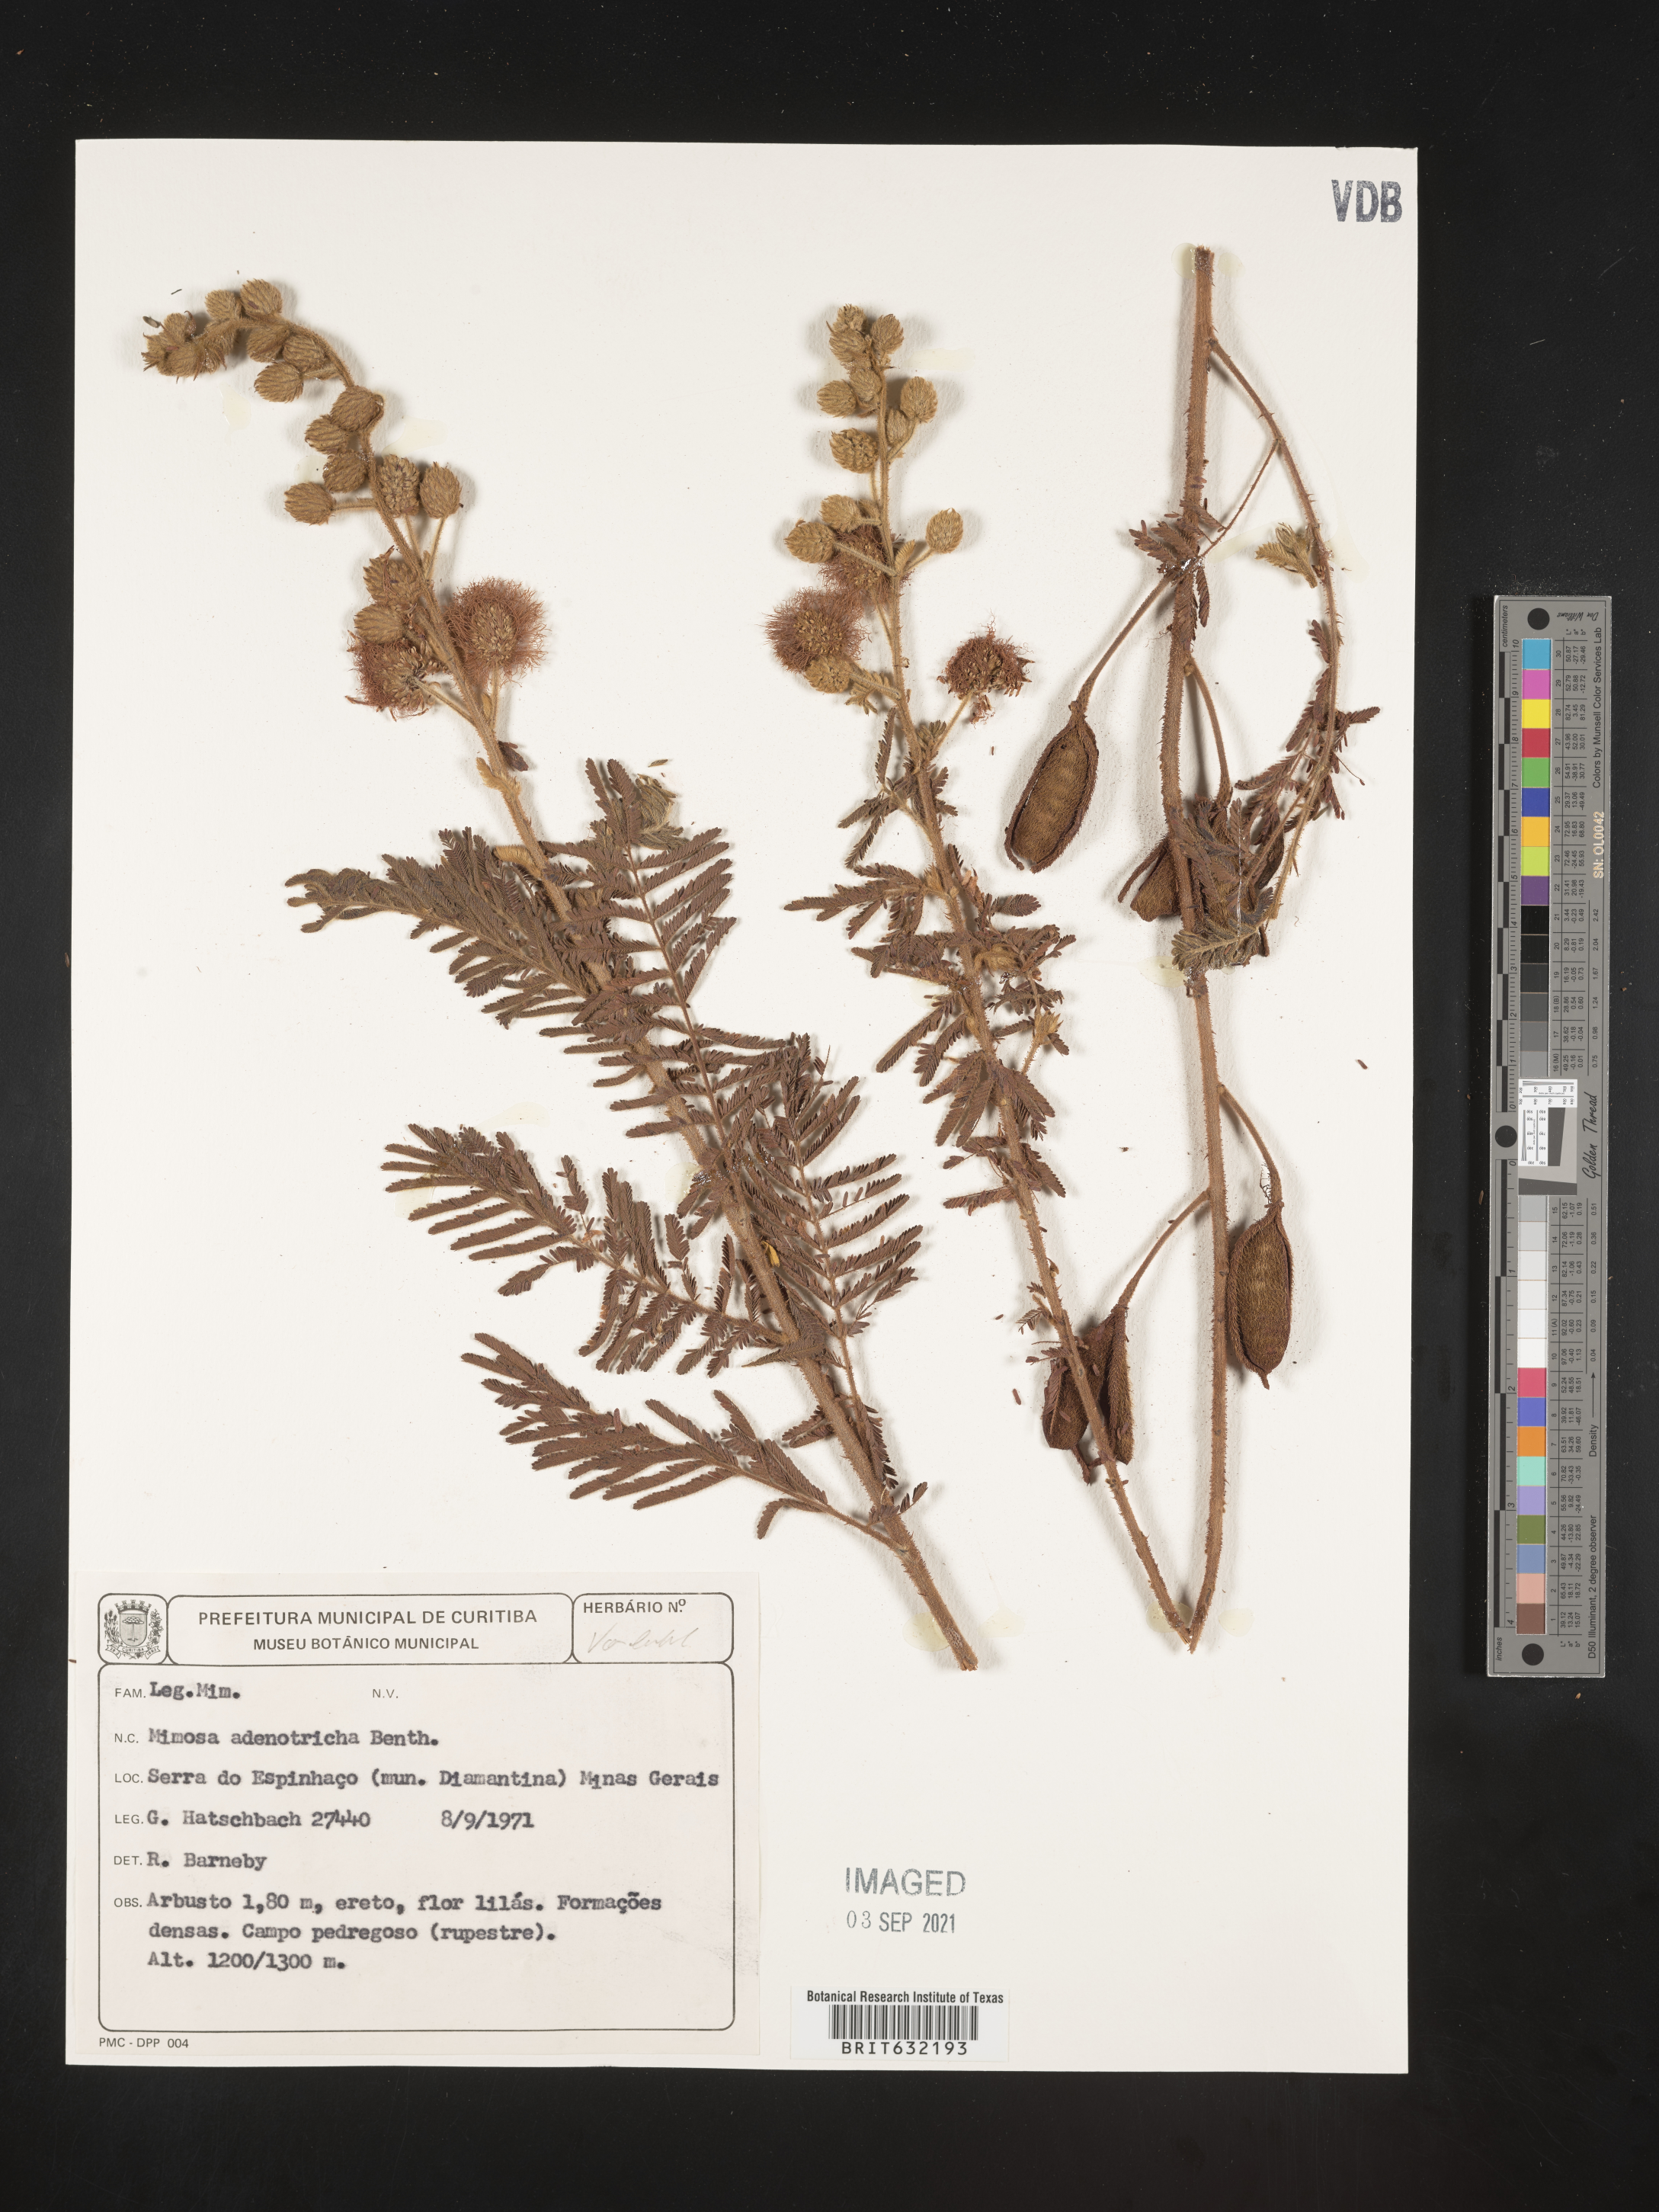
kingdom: Plantae
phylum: Tracheophyta
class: Magnoliopsida
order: Fabales
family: Fabaceae
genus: Mimosa
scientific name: Mimosa
